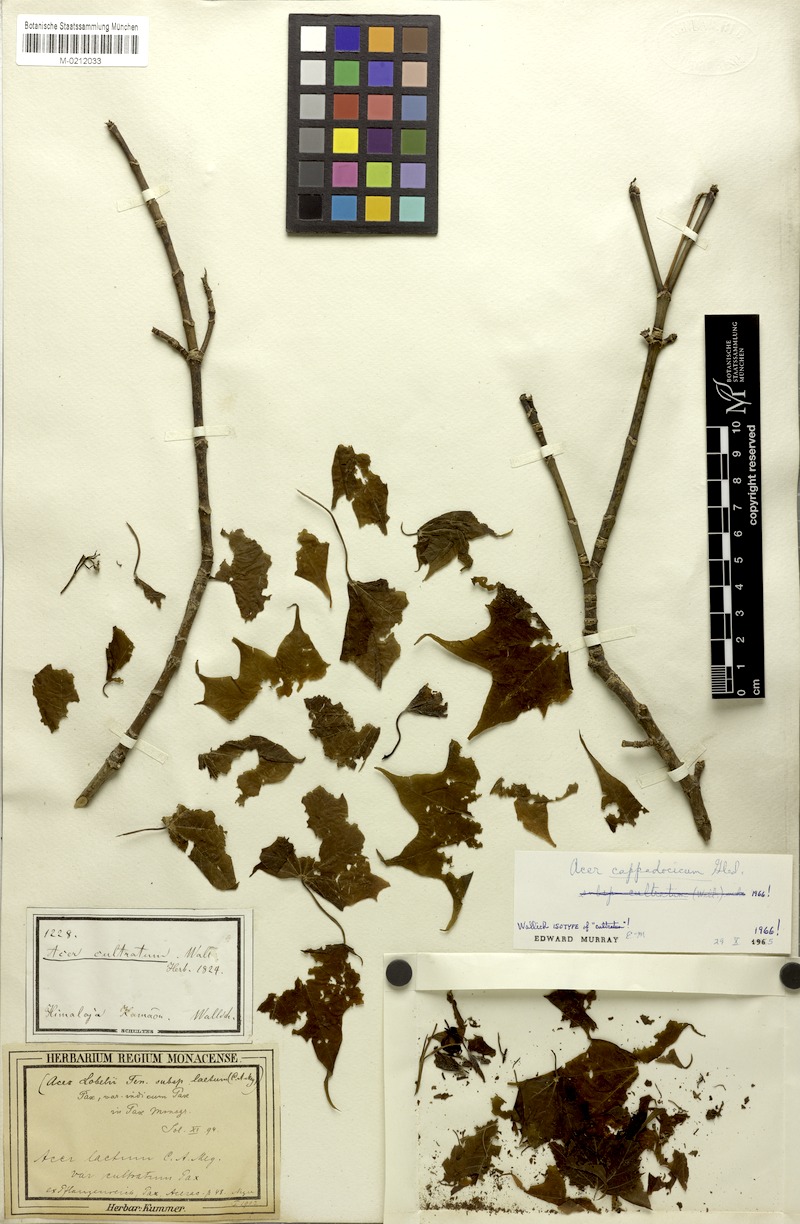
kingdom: Plantae
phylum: Tracheophyta
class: Magnoliopsida
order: Sapindales
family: Sapindaceae
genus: Acer
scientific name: Acer cappadocicum
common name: Cappadocian maple
